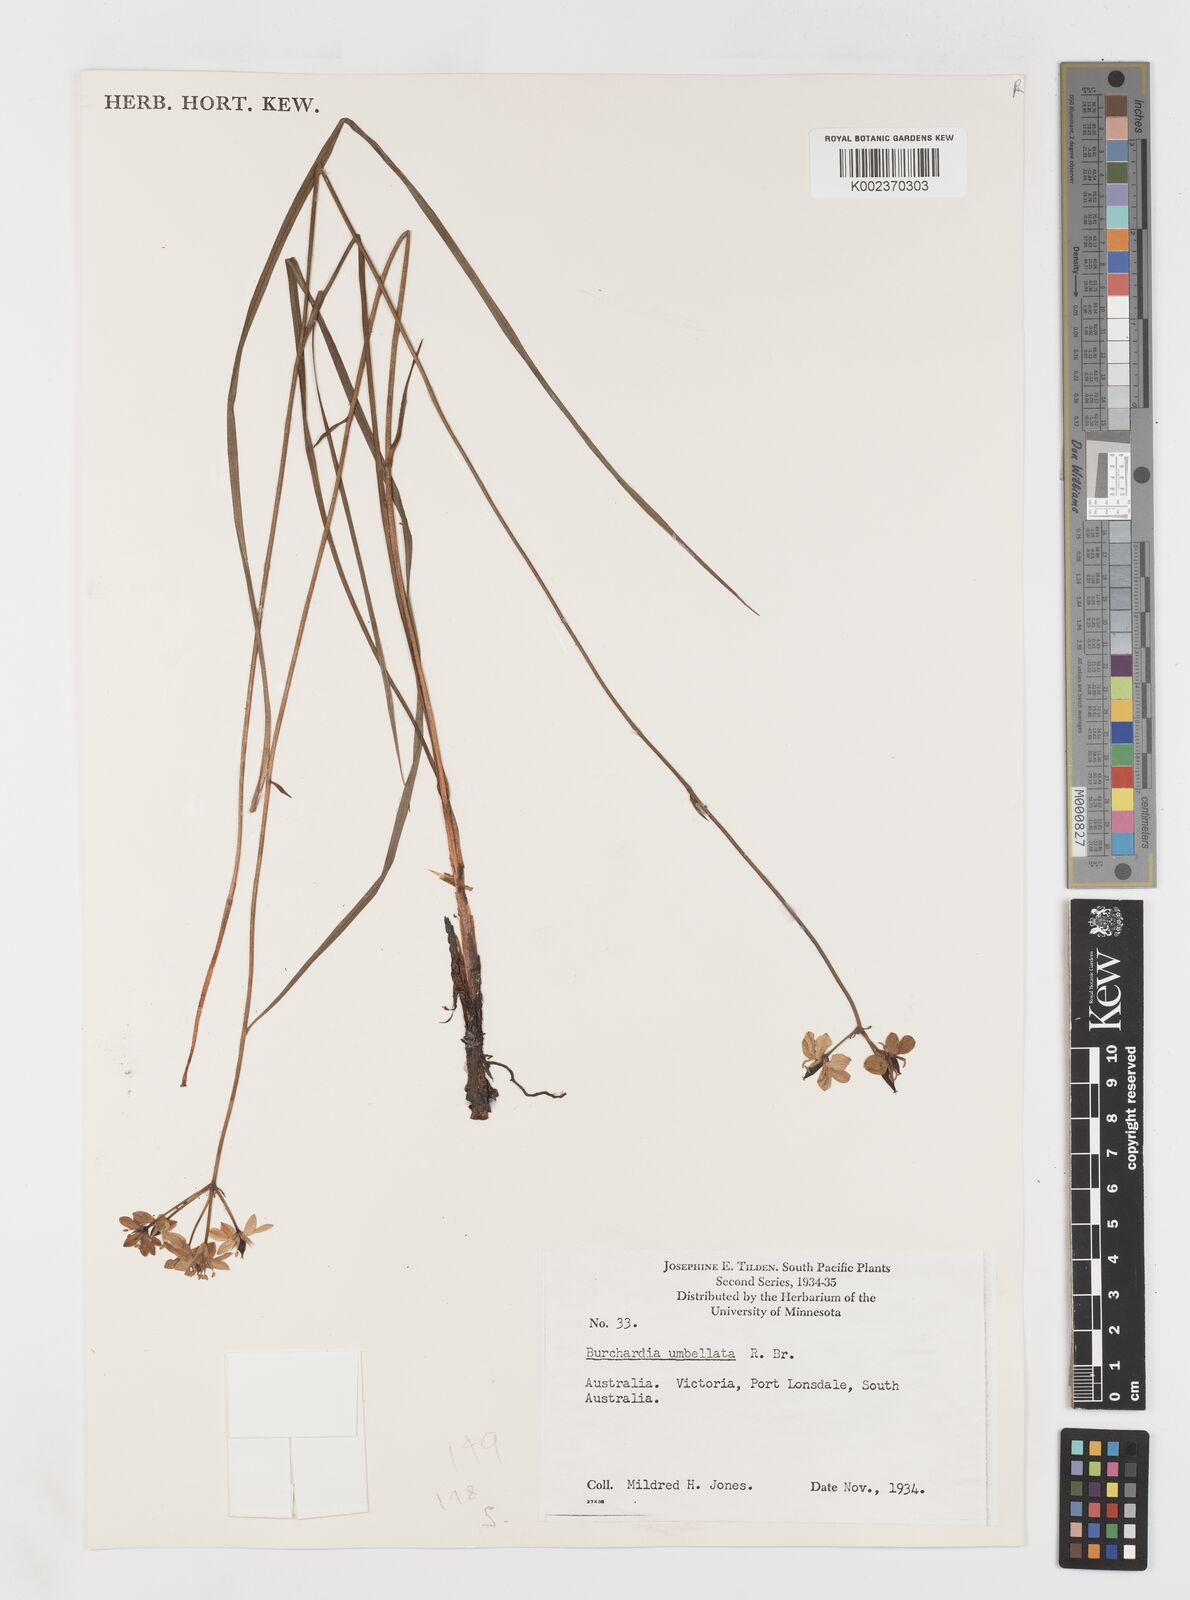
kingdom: Plantae
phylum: Tracheophyta
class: Liliopsida
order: Liliales
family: Colchicaceae
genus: Burchardia
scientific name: Burchardia umbellata
